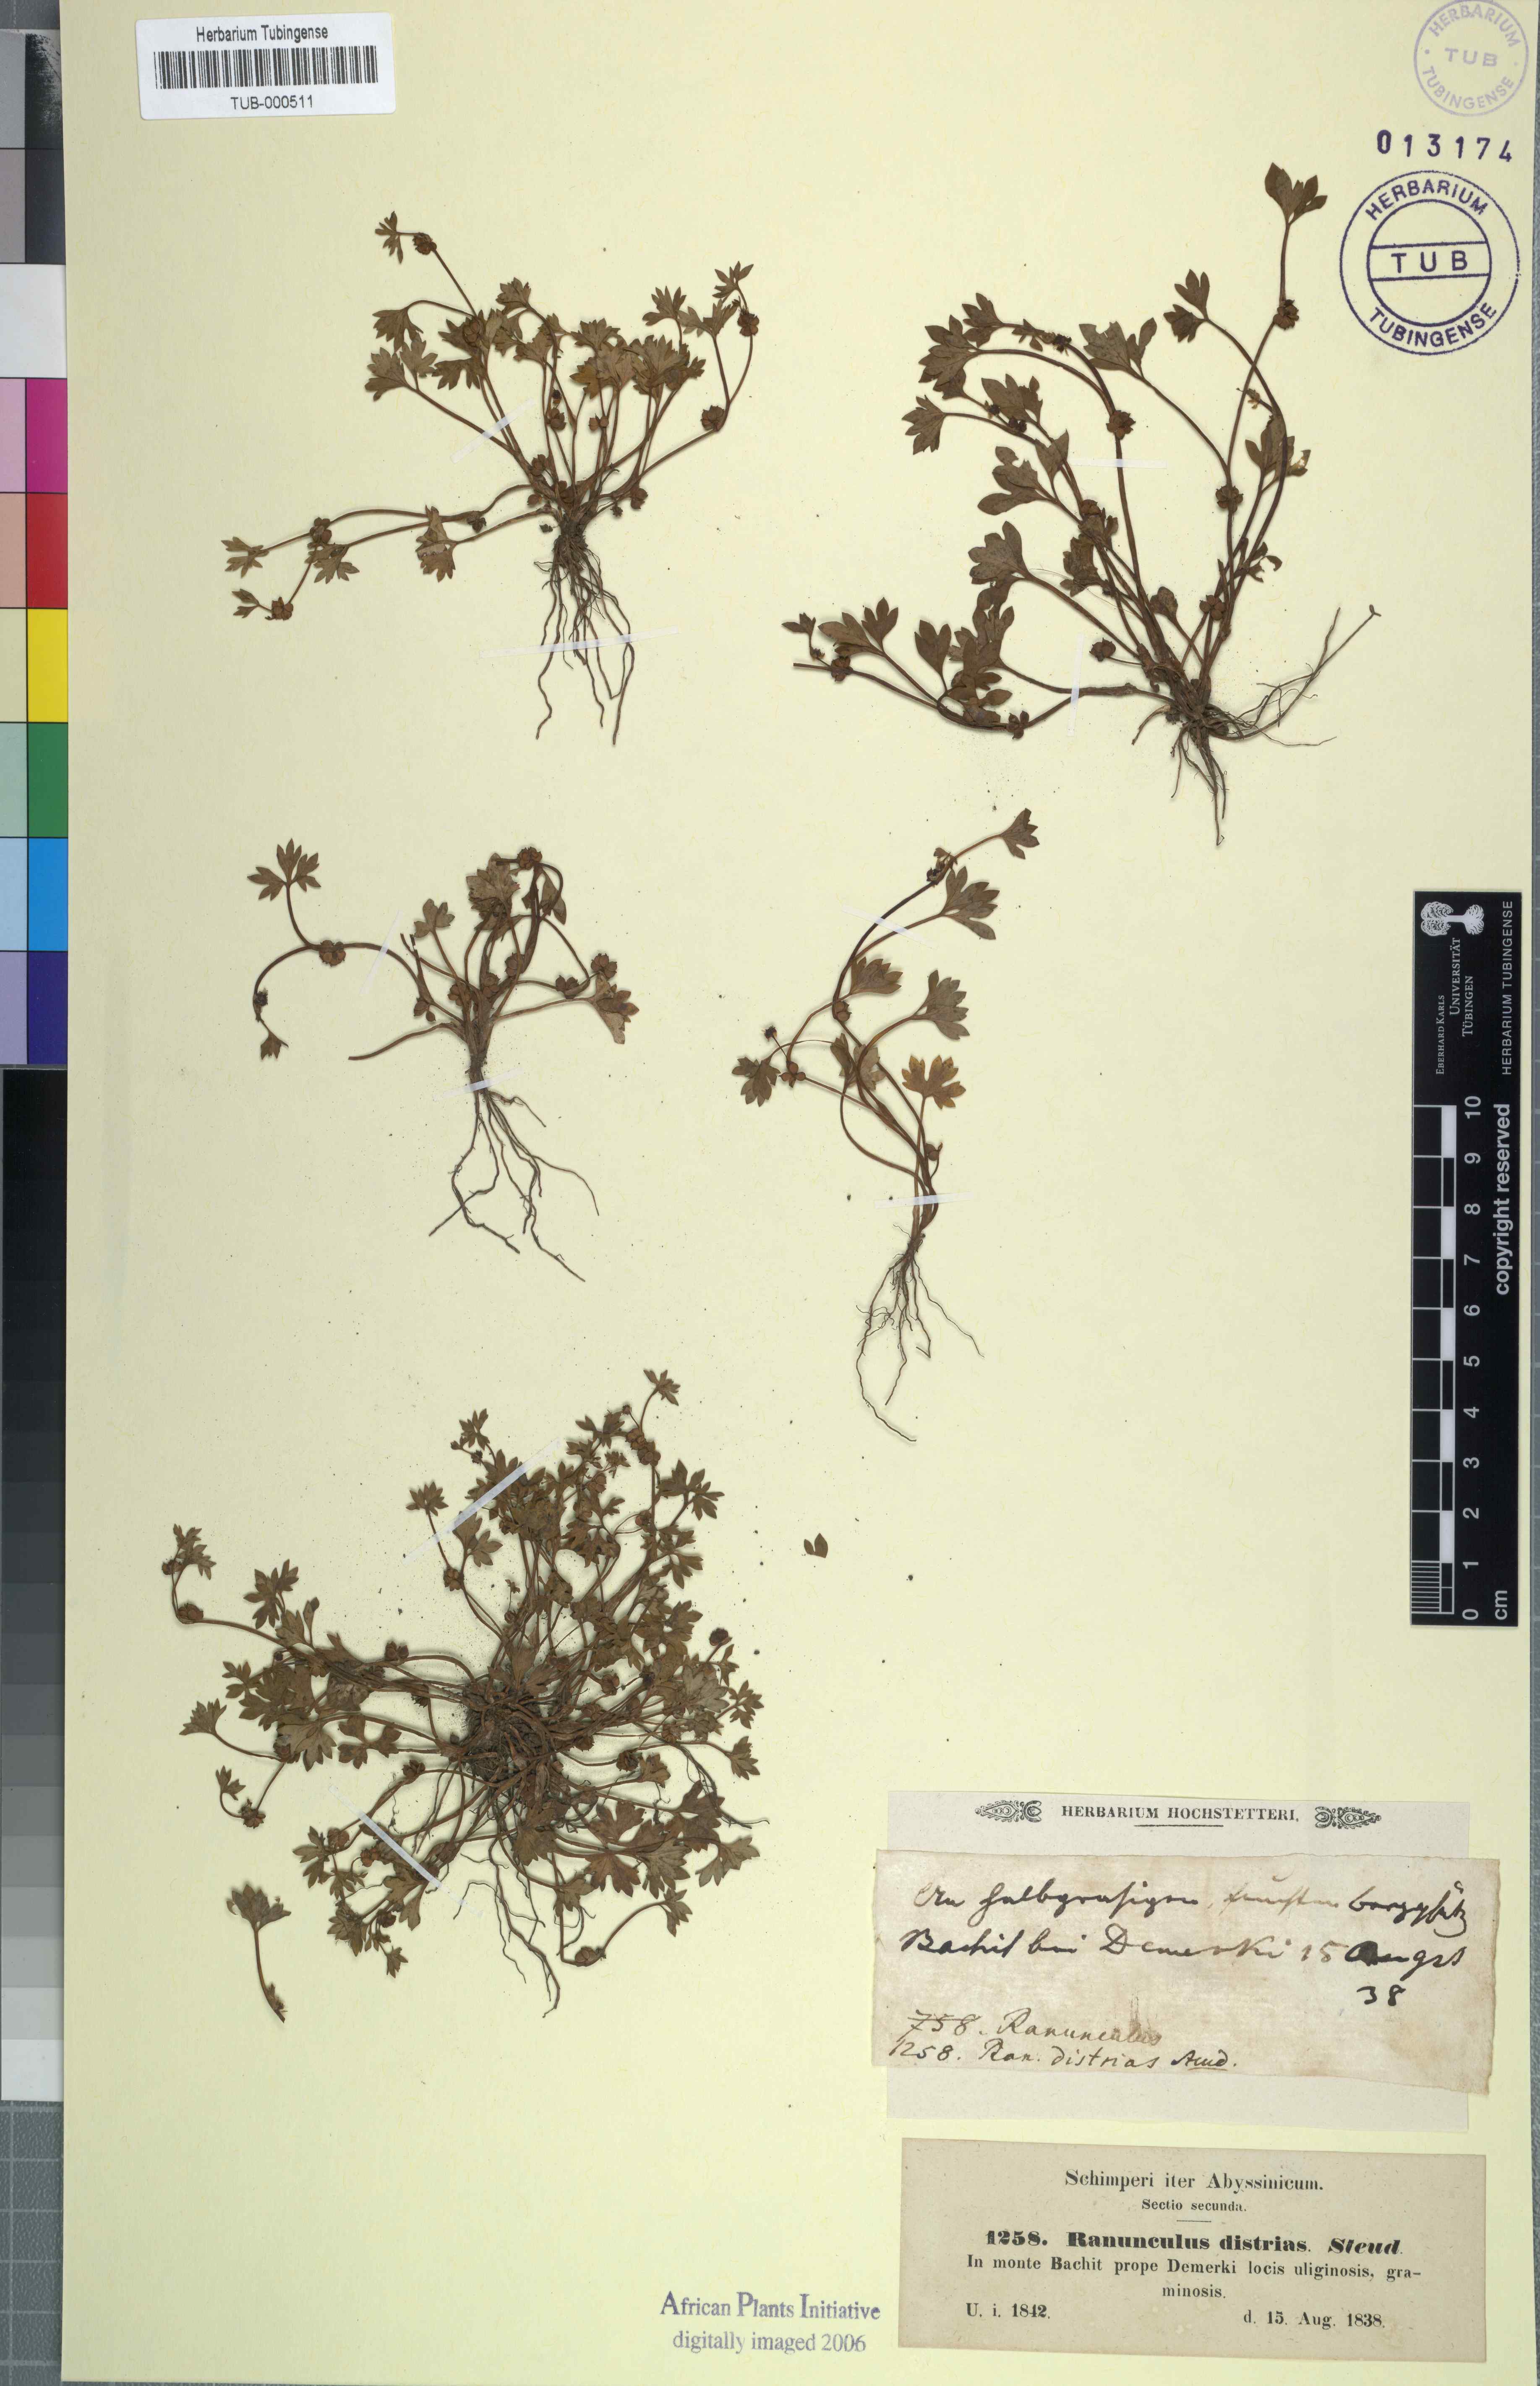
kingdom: Plantae
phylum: Tracheophyta
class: Magnoliopsida
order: Ranunculales
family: Ranunculaceae
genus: Ranunculus
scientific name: Ranunculus cuneilobus
